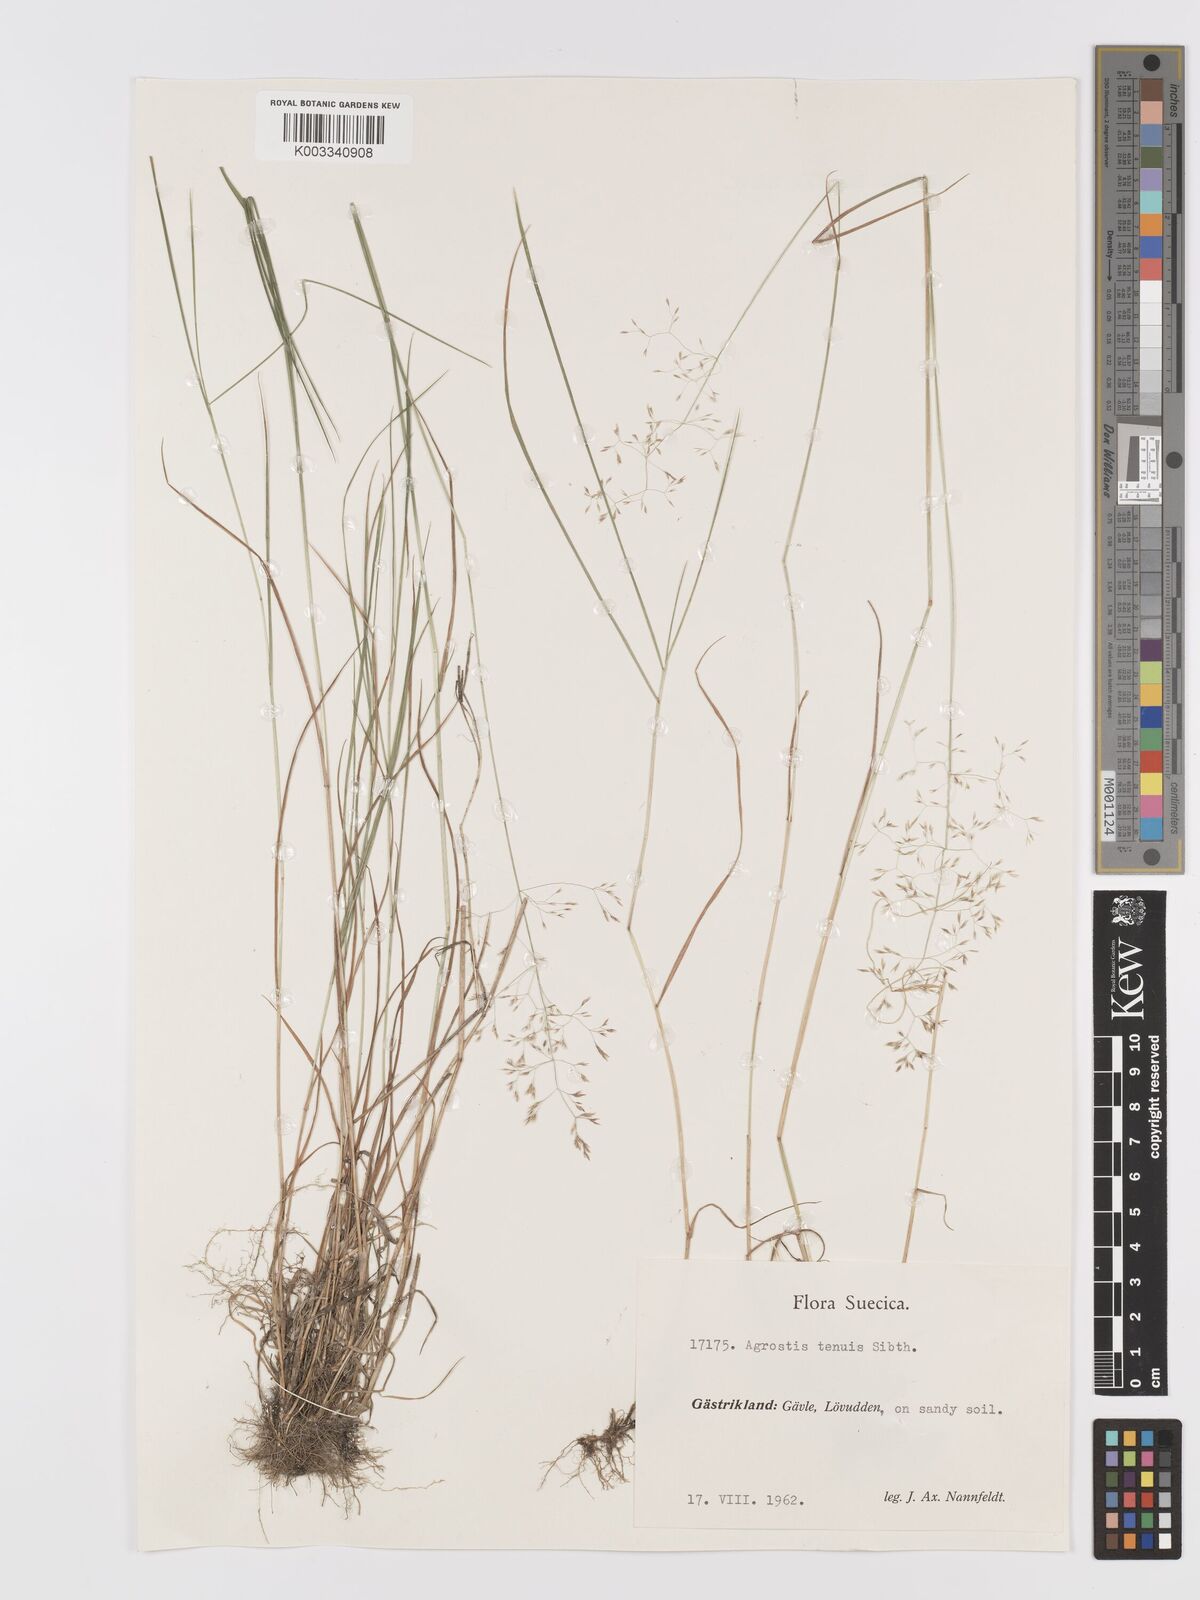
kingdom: Plantae
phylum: Tracheophyta
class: Liliopsida
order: Poales
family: Poaceae
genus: Agrostis
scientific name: Agrostis capillaris
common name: Colonial bentgrass
